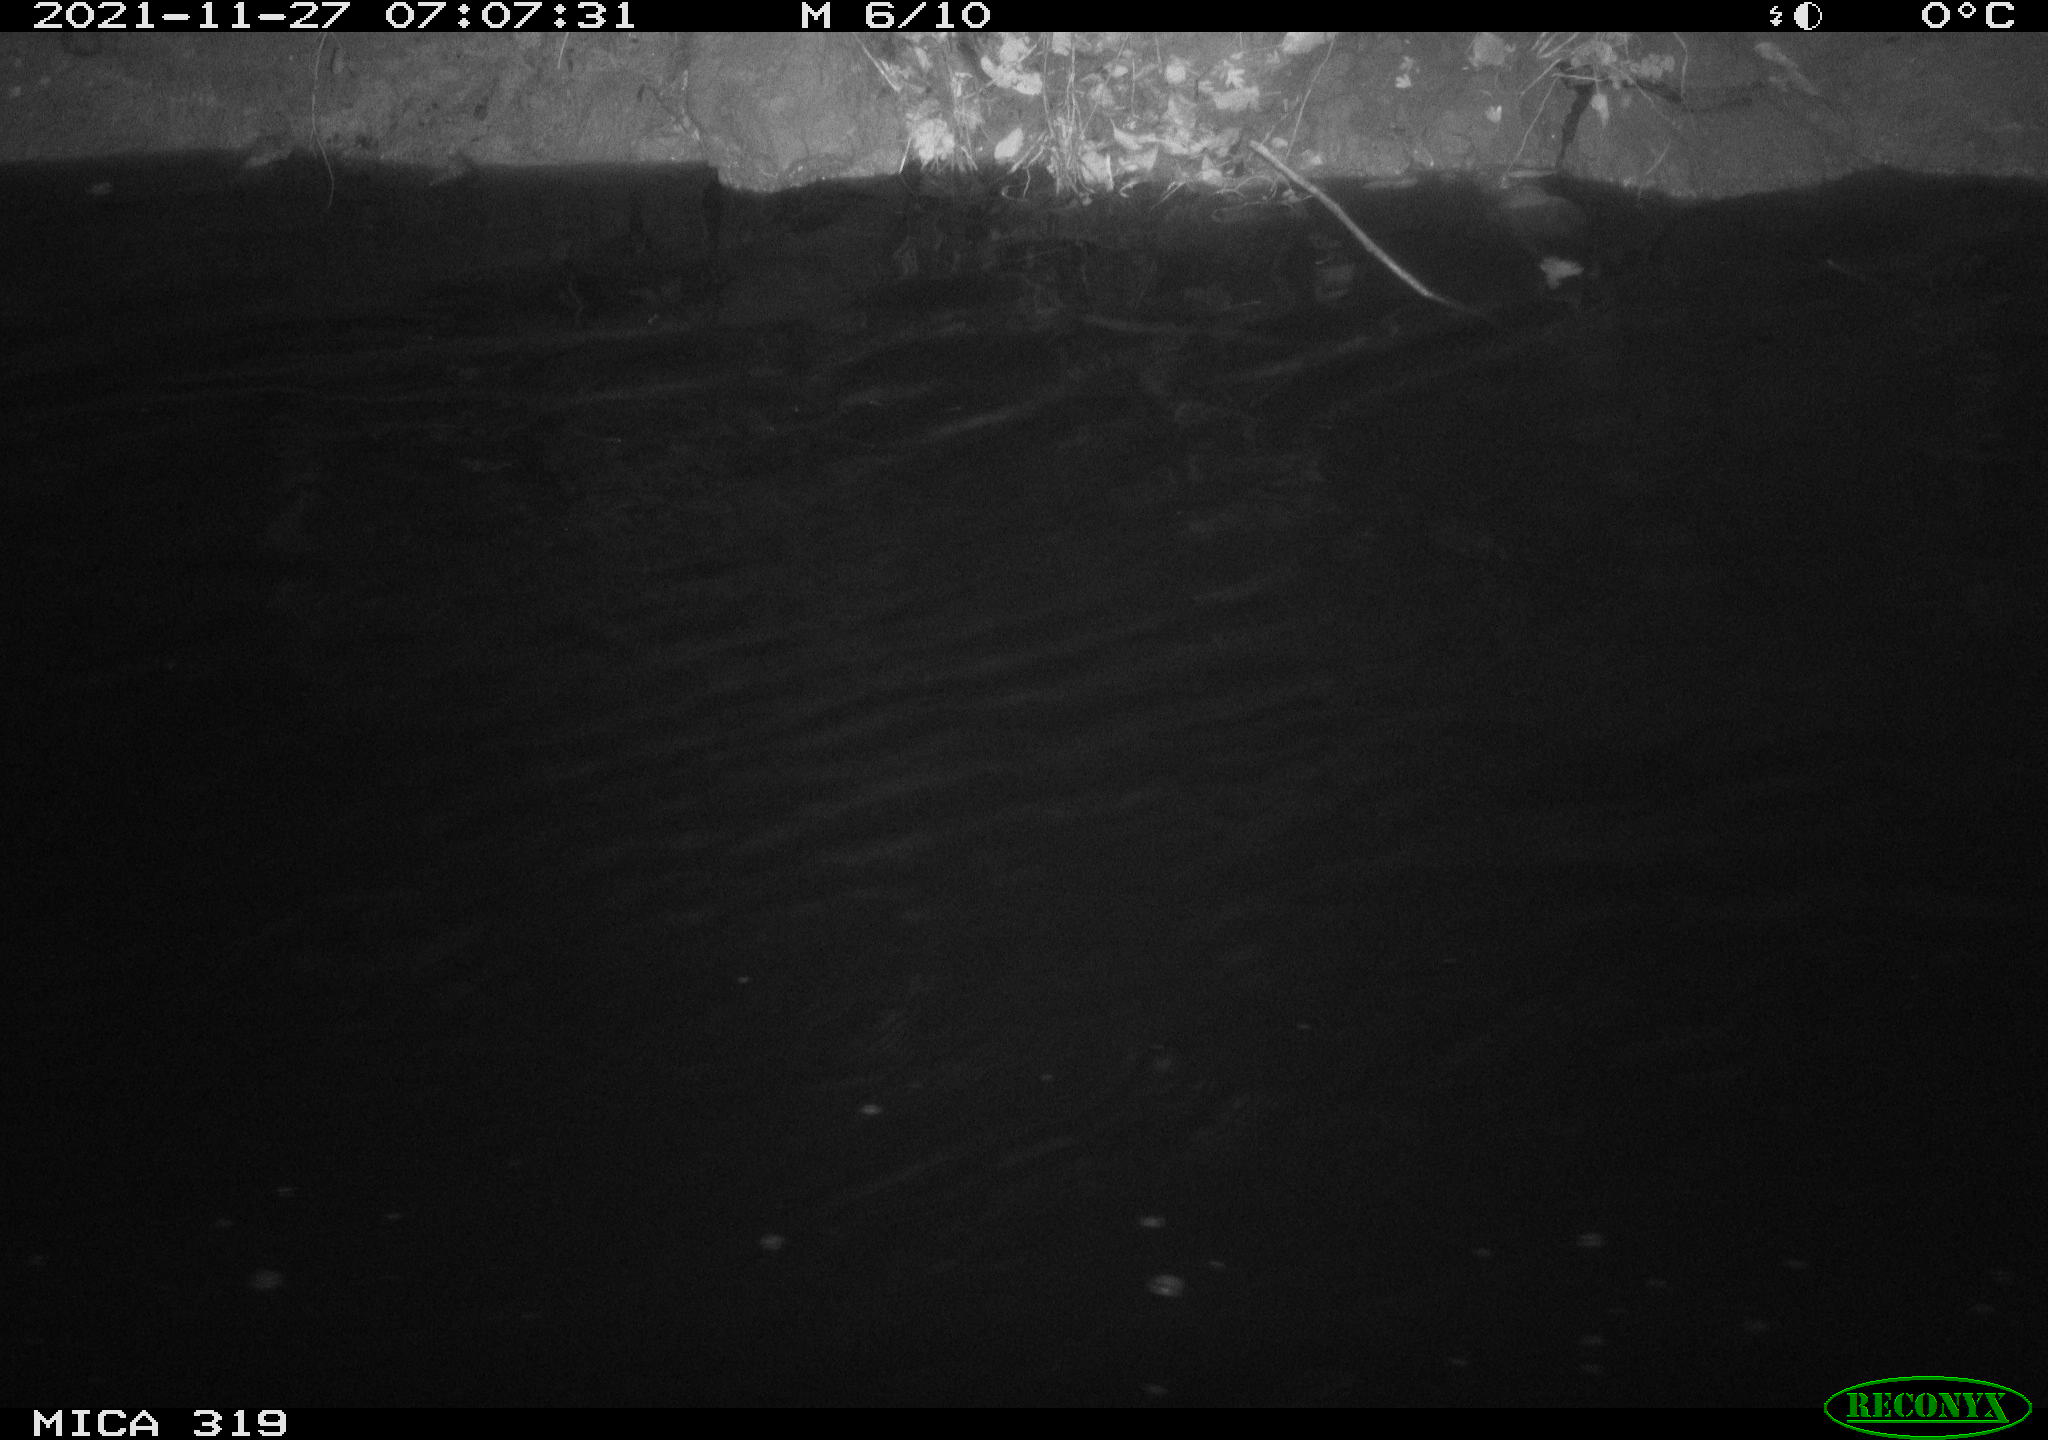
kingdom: Animalia
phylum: Chordata
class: Aves
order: Anseriformes
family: Anatidae
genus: Anas
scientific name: Anas platyrhynchos
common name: Mallard
